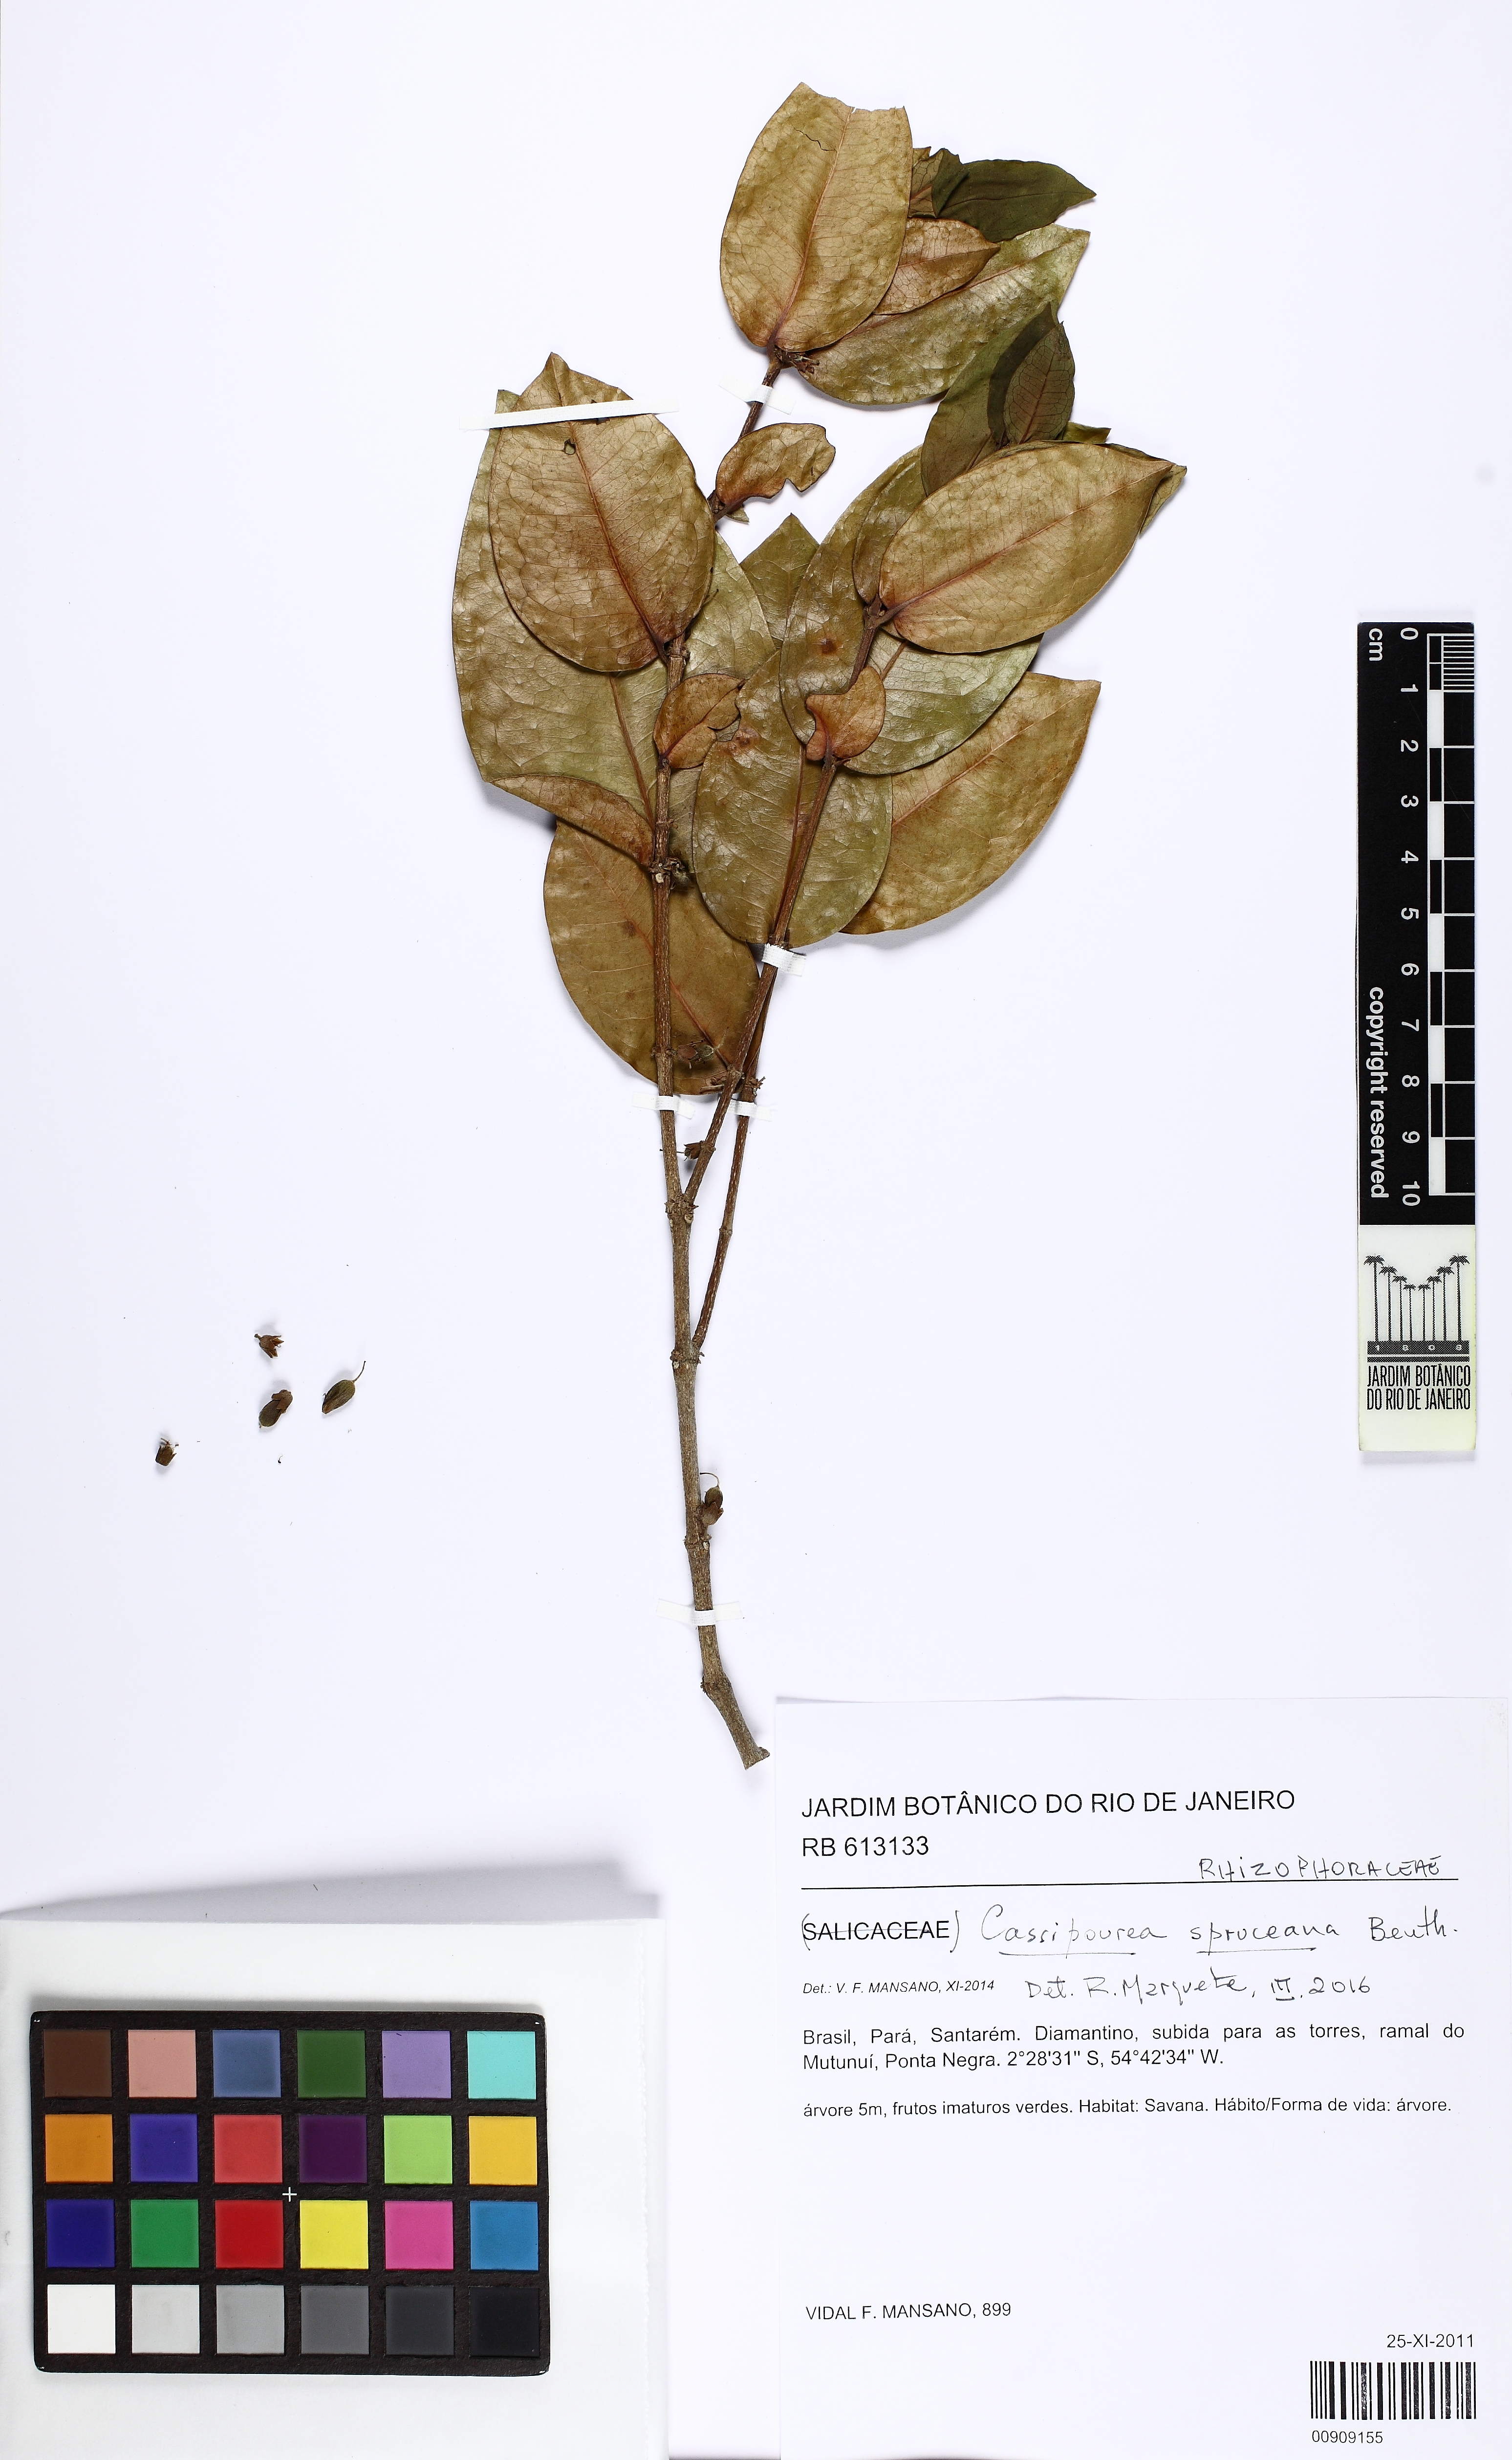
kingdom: Plantae
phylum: Tracheophyta
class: Magnoliopsida
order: Malpighiales
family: Rhizophoraceae
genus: Cassipourea
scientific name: Cassipourea spruceana
